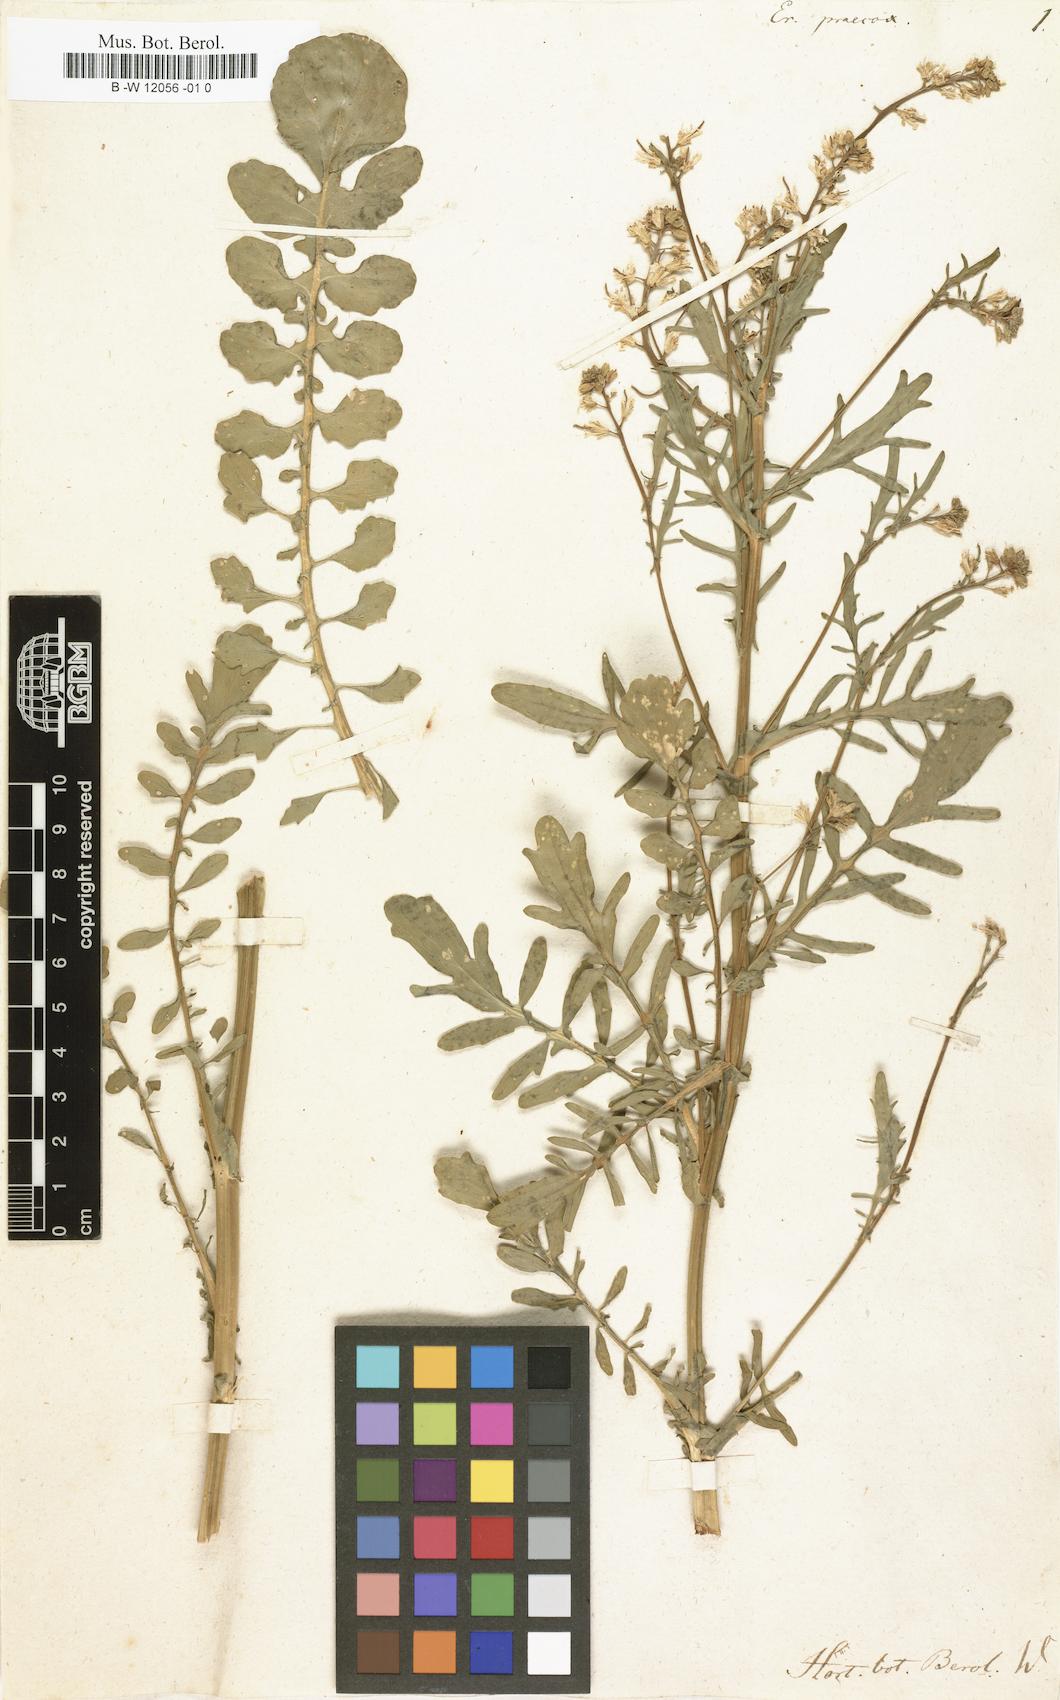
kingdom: Plantae
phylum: Tracheophyta
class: Magnoliopsida
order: Brassicales
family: Brassicaceae
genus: Barbarea
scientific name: Barbarea verna
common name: American cress
